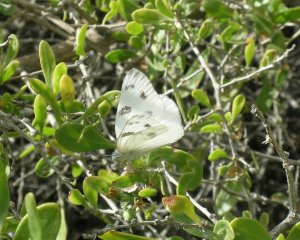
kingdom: Animalia
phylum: Arthropoda
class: Insecta
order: Lepidoptera
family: Pieridae
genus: Pontia
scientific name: Pontia protodice
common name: Checkered White
